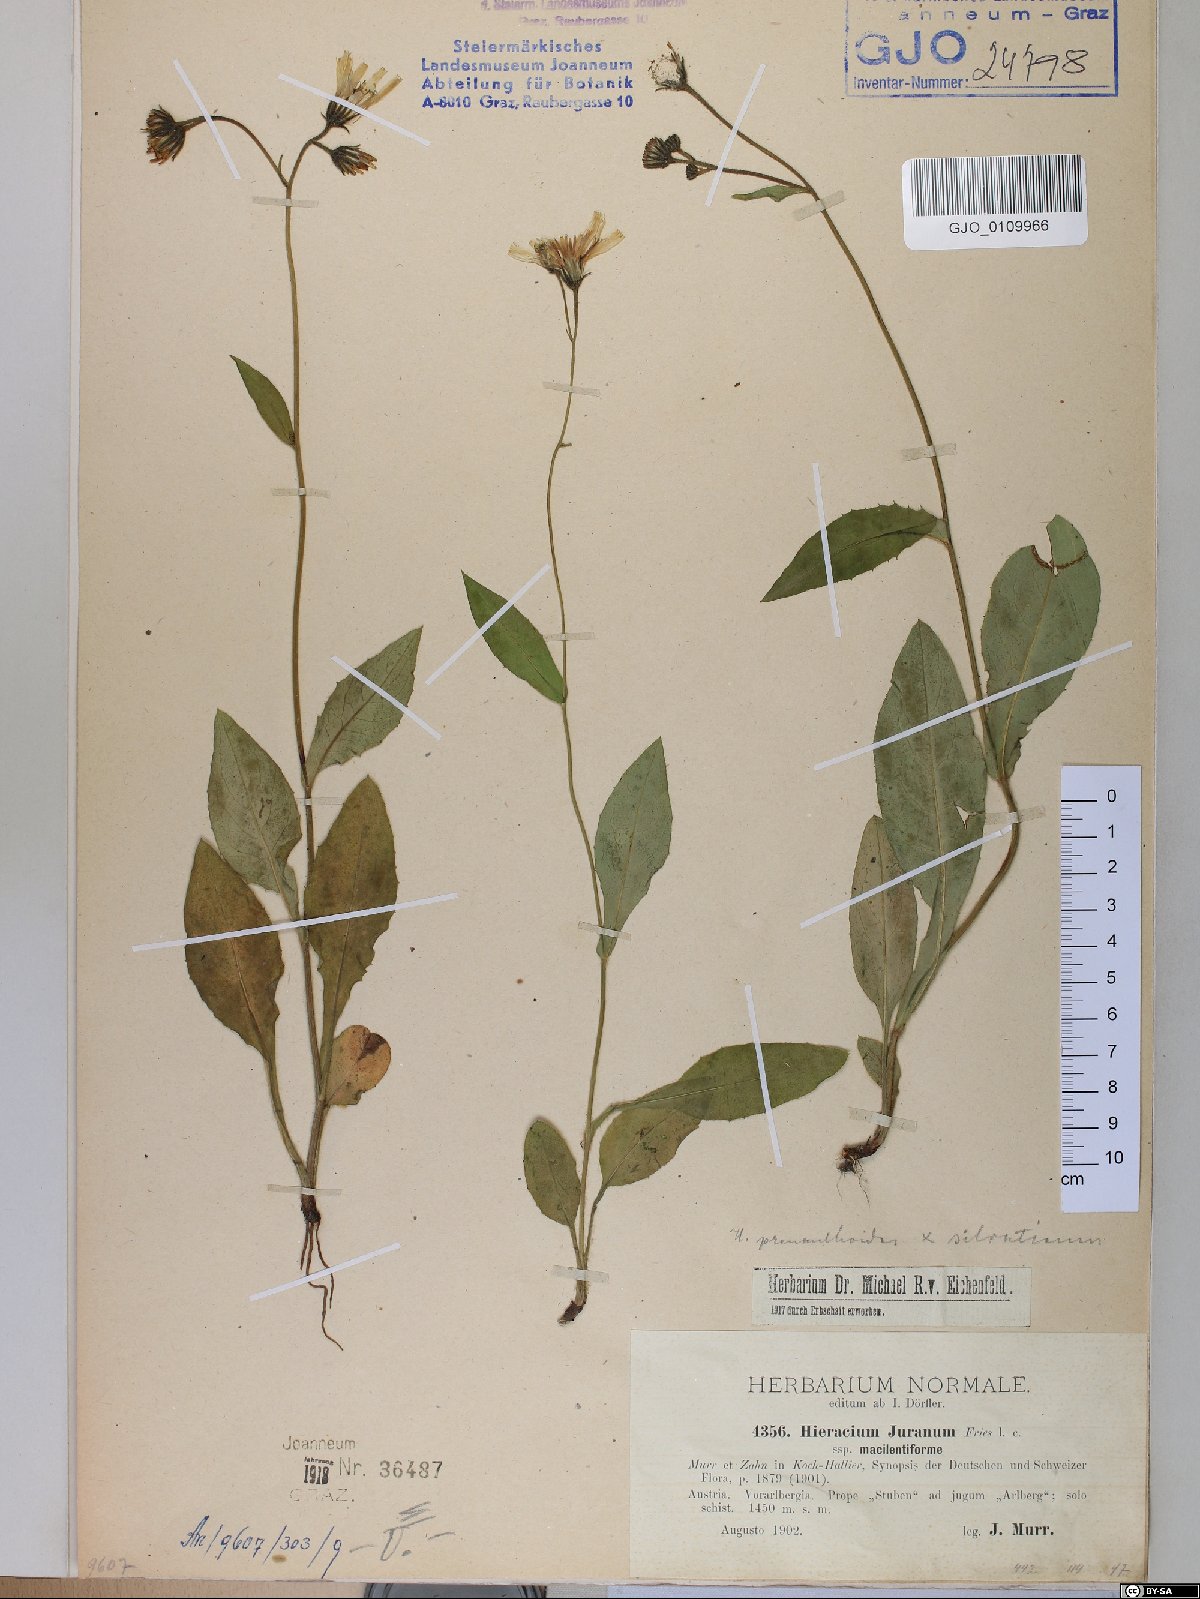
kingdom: Plantae
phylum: Tracheophyta
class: Magnoliopsida
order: Asterales
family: Asteraceae
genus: Hieracium
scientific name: Hieracium jurassicum
